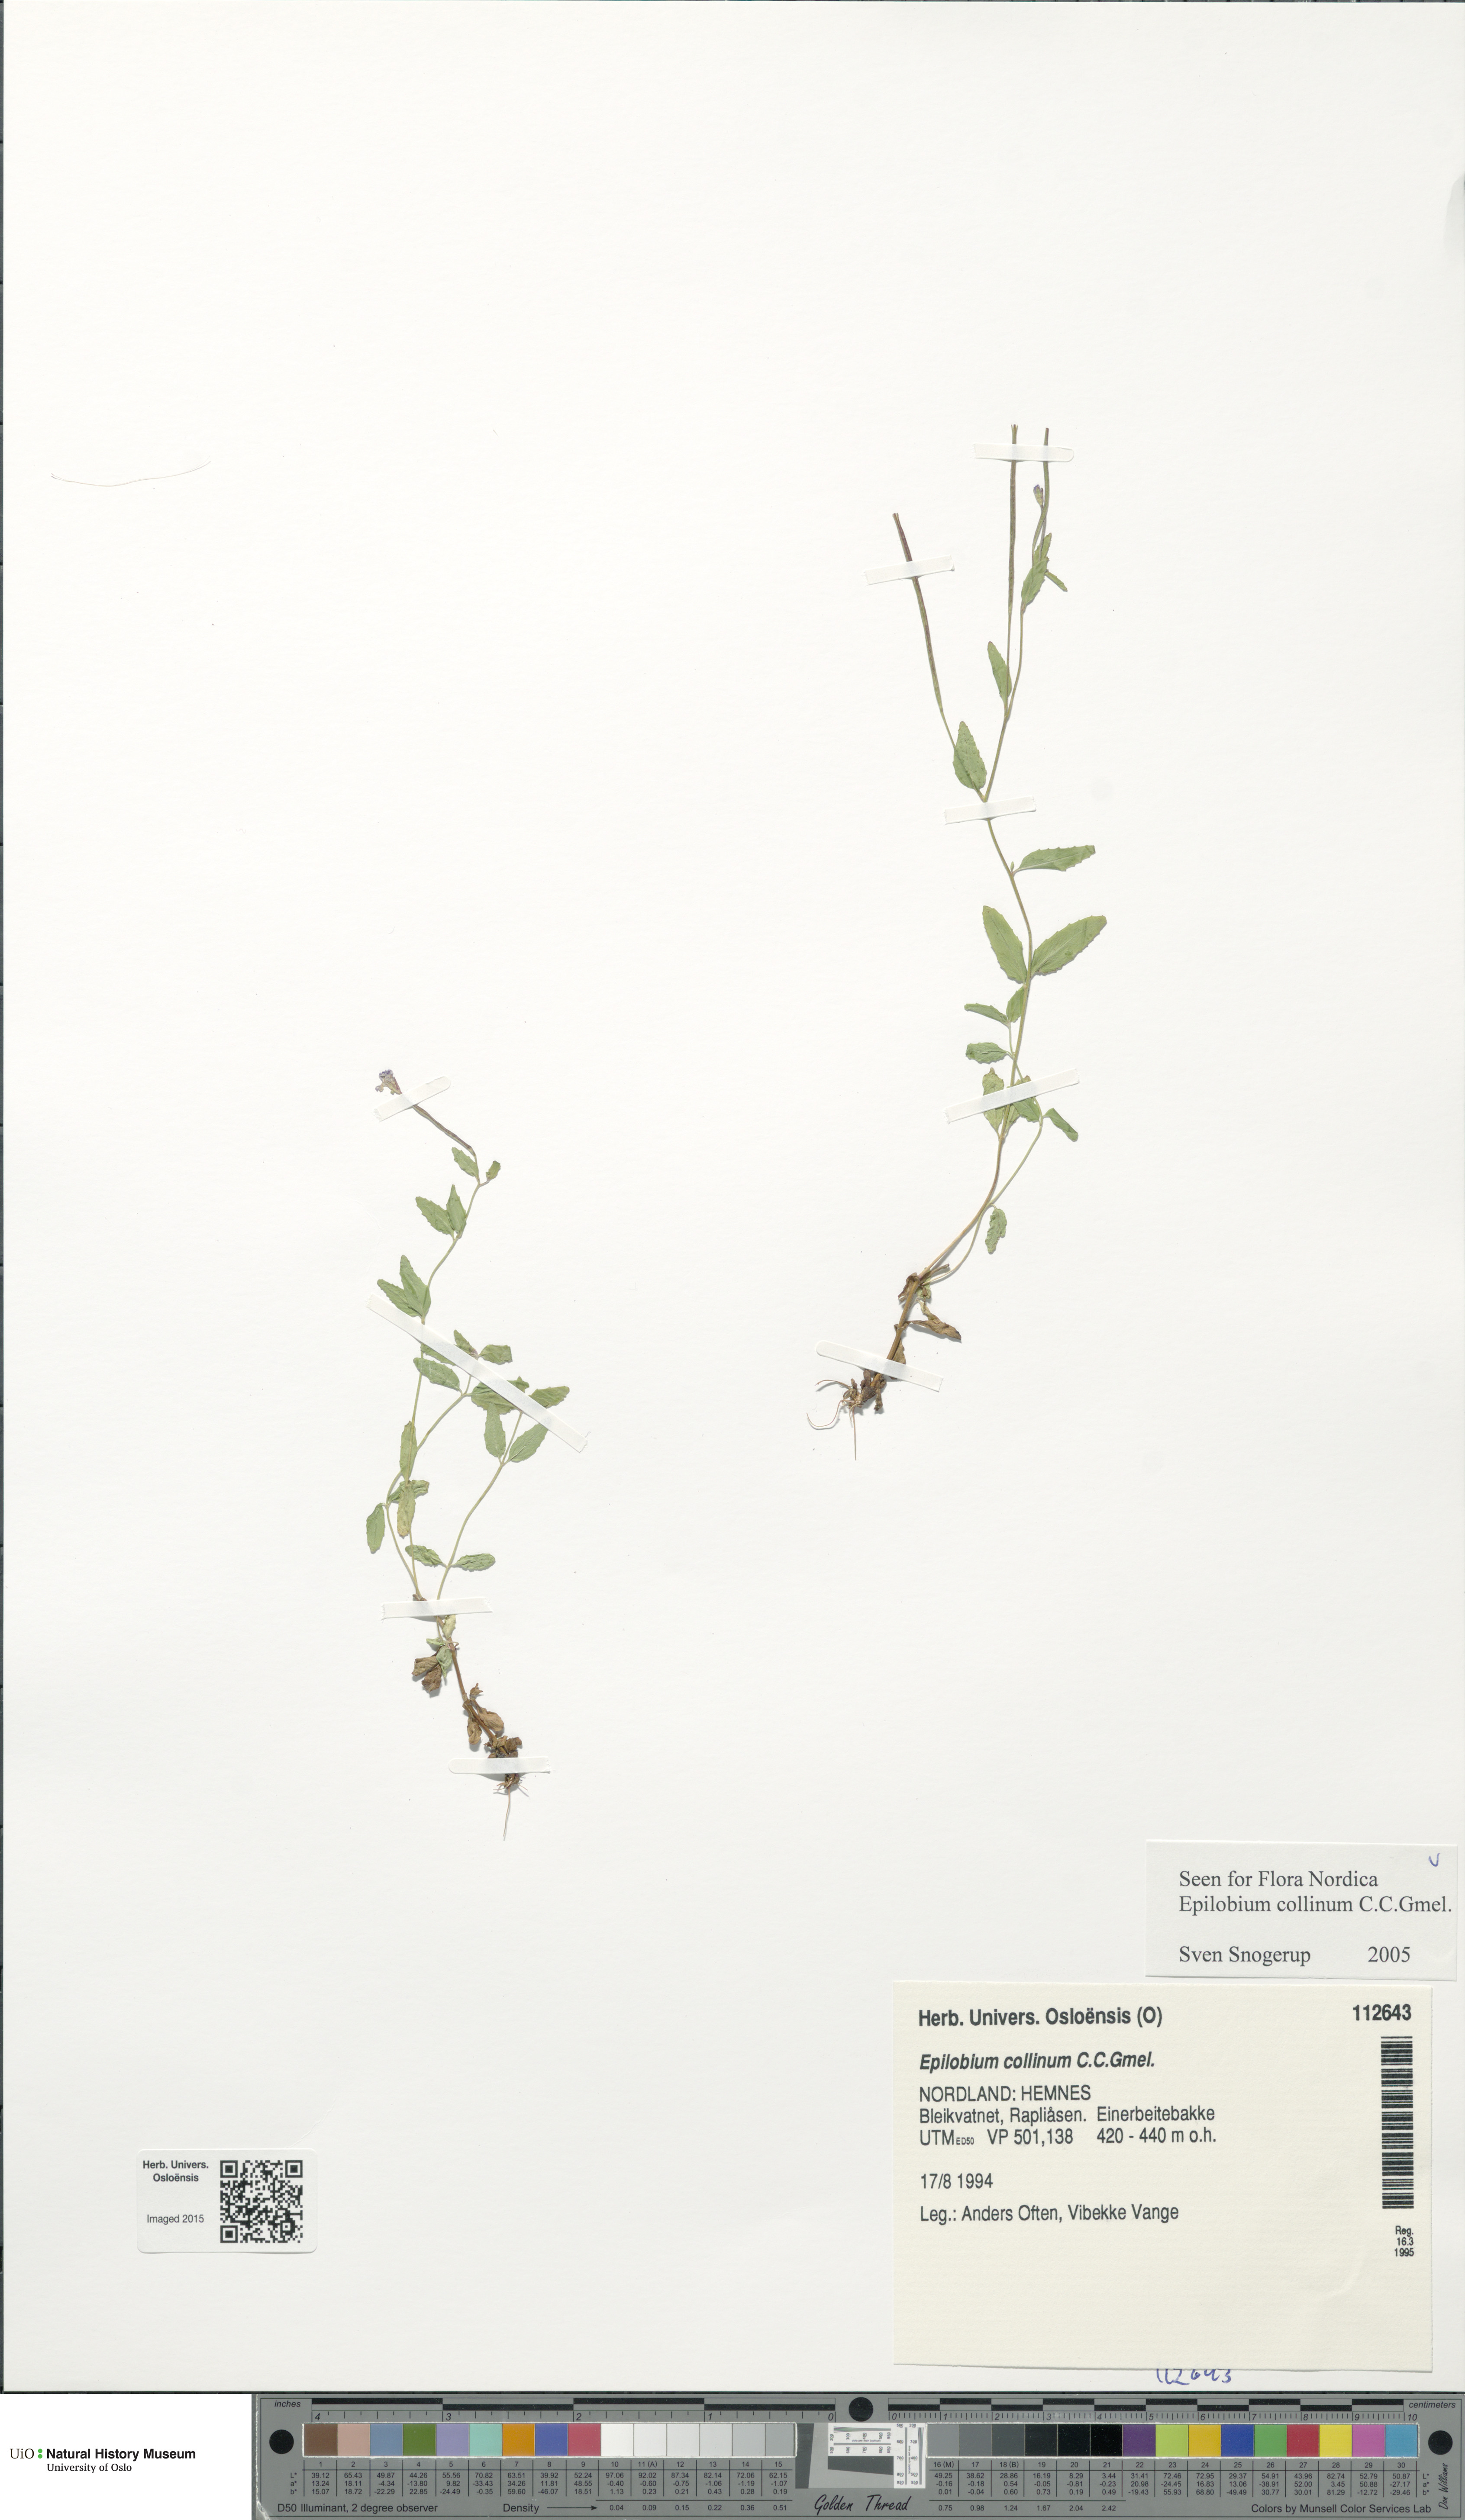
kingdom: Plantae
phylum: Tracheophyta
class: Magnoliopsida
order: Myrtales
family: Onagraceae
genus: Epilobium
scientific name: Epilobium collinum
